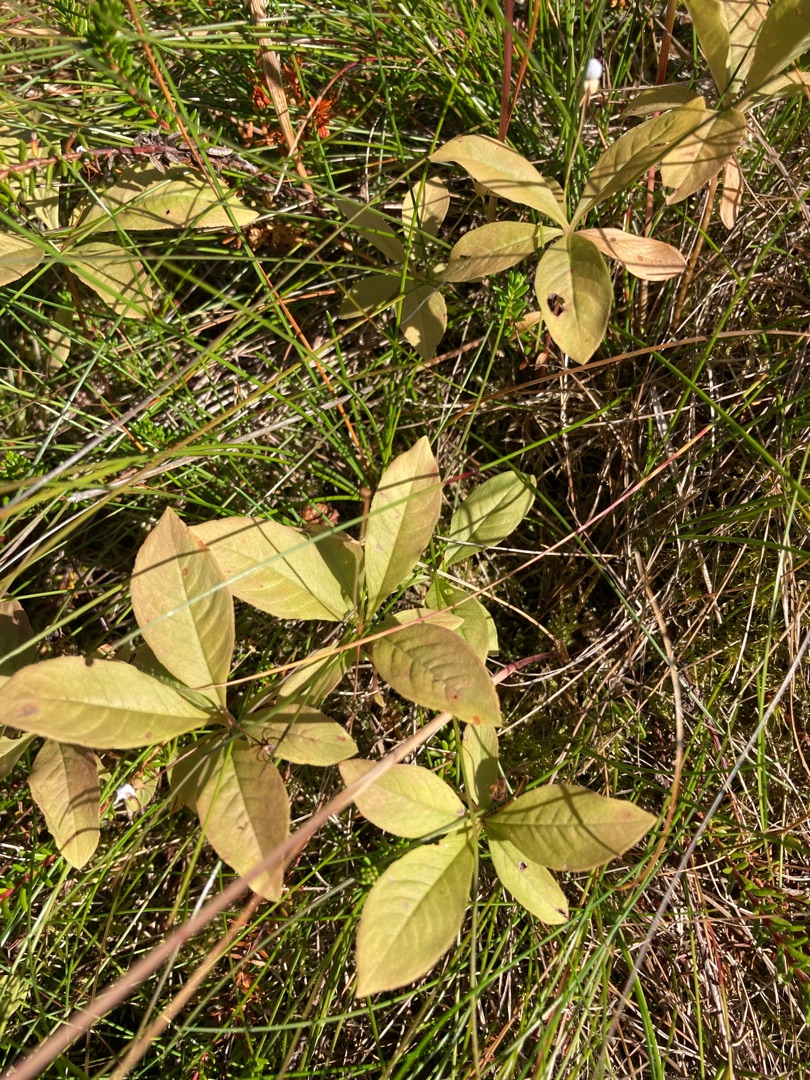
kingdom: Plantae
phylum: Tracheophyta
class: Magnoliopsida
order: Ericales
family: Primulaceae
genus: Lysimachia
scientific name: Lysimachia europaea
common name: Skovstjerne
